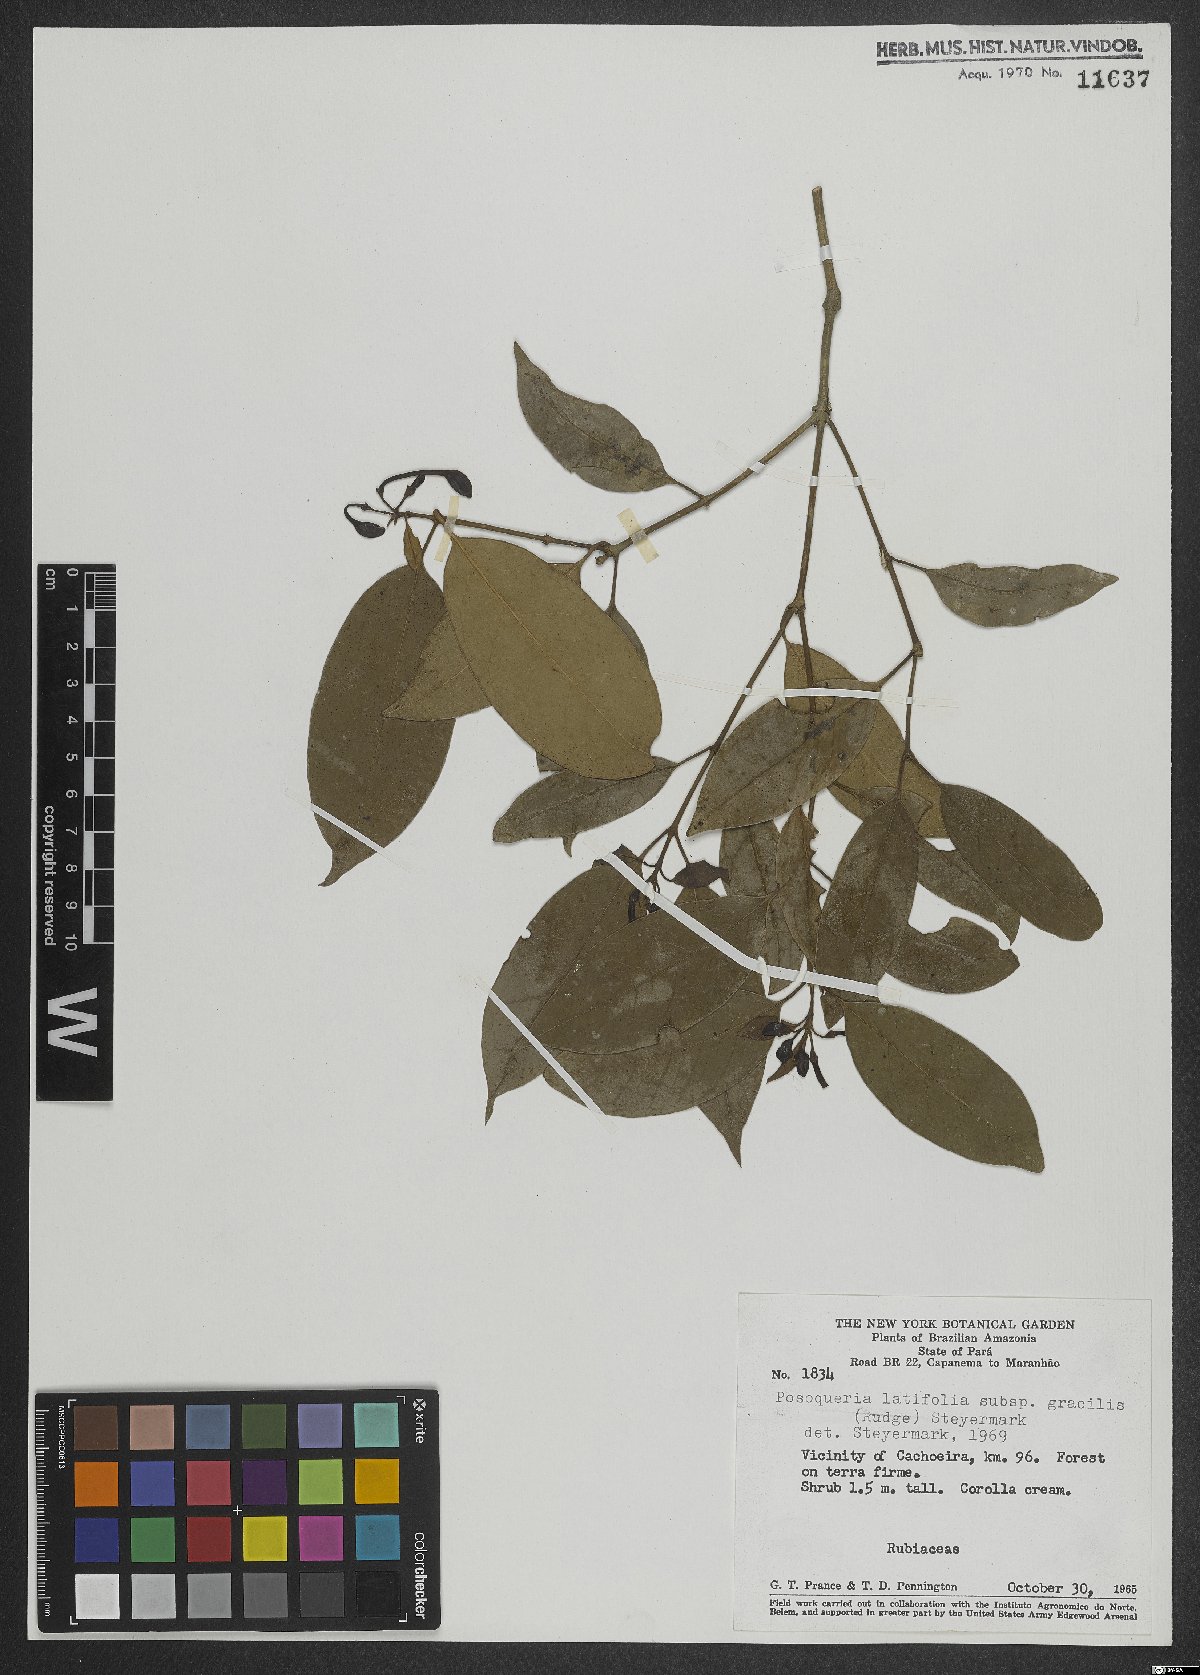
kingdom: Plantae
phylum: Tracheophyta
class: Magnoliopsida
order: Gentianales
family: Rubiaceae
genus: Posoqueria
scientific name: Posoqueria latifolia
